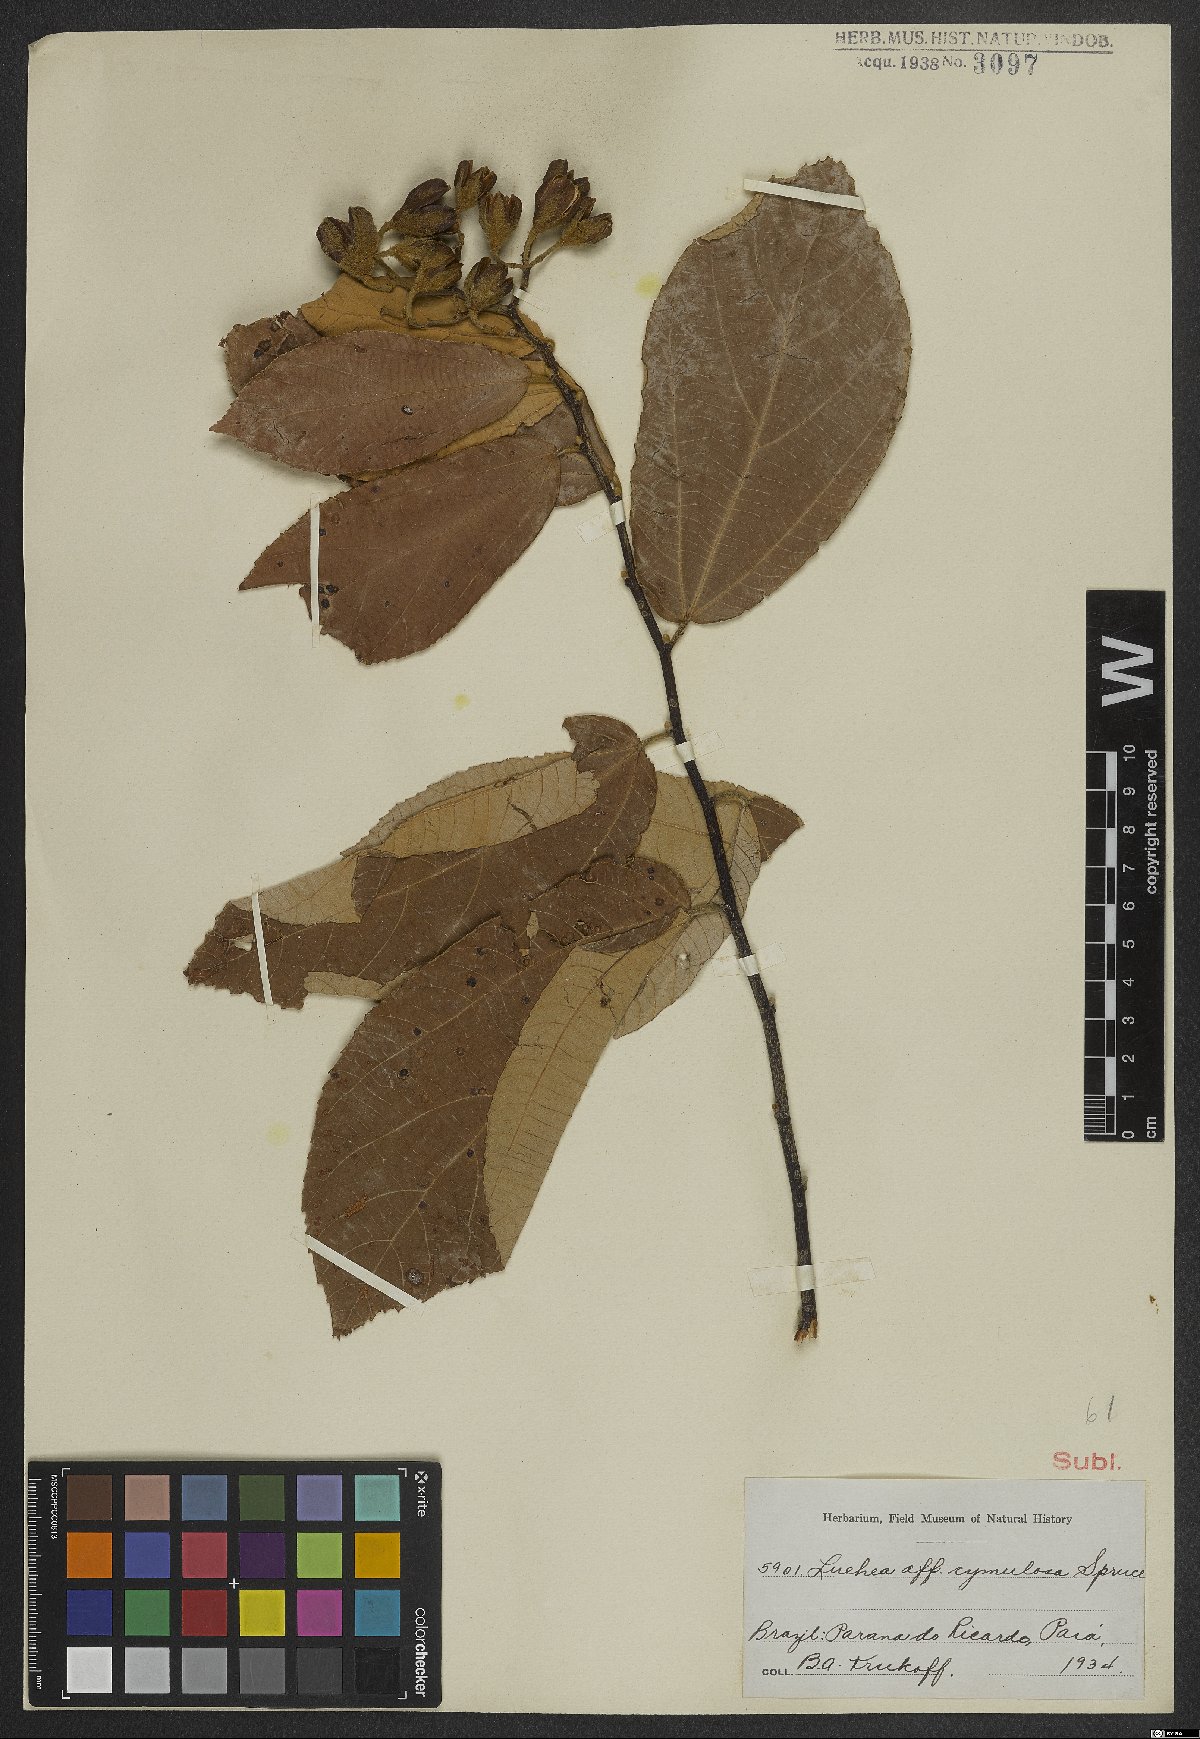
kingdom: Plantae
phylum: Tracheophyta
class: Magnoliopsida
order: Malvales
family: Malvaceae
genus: Luehea
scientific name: Luehea cymulosa
